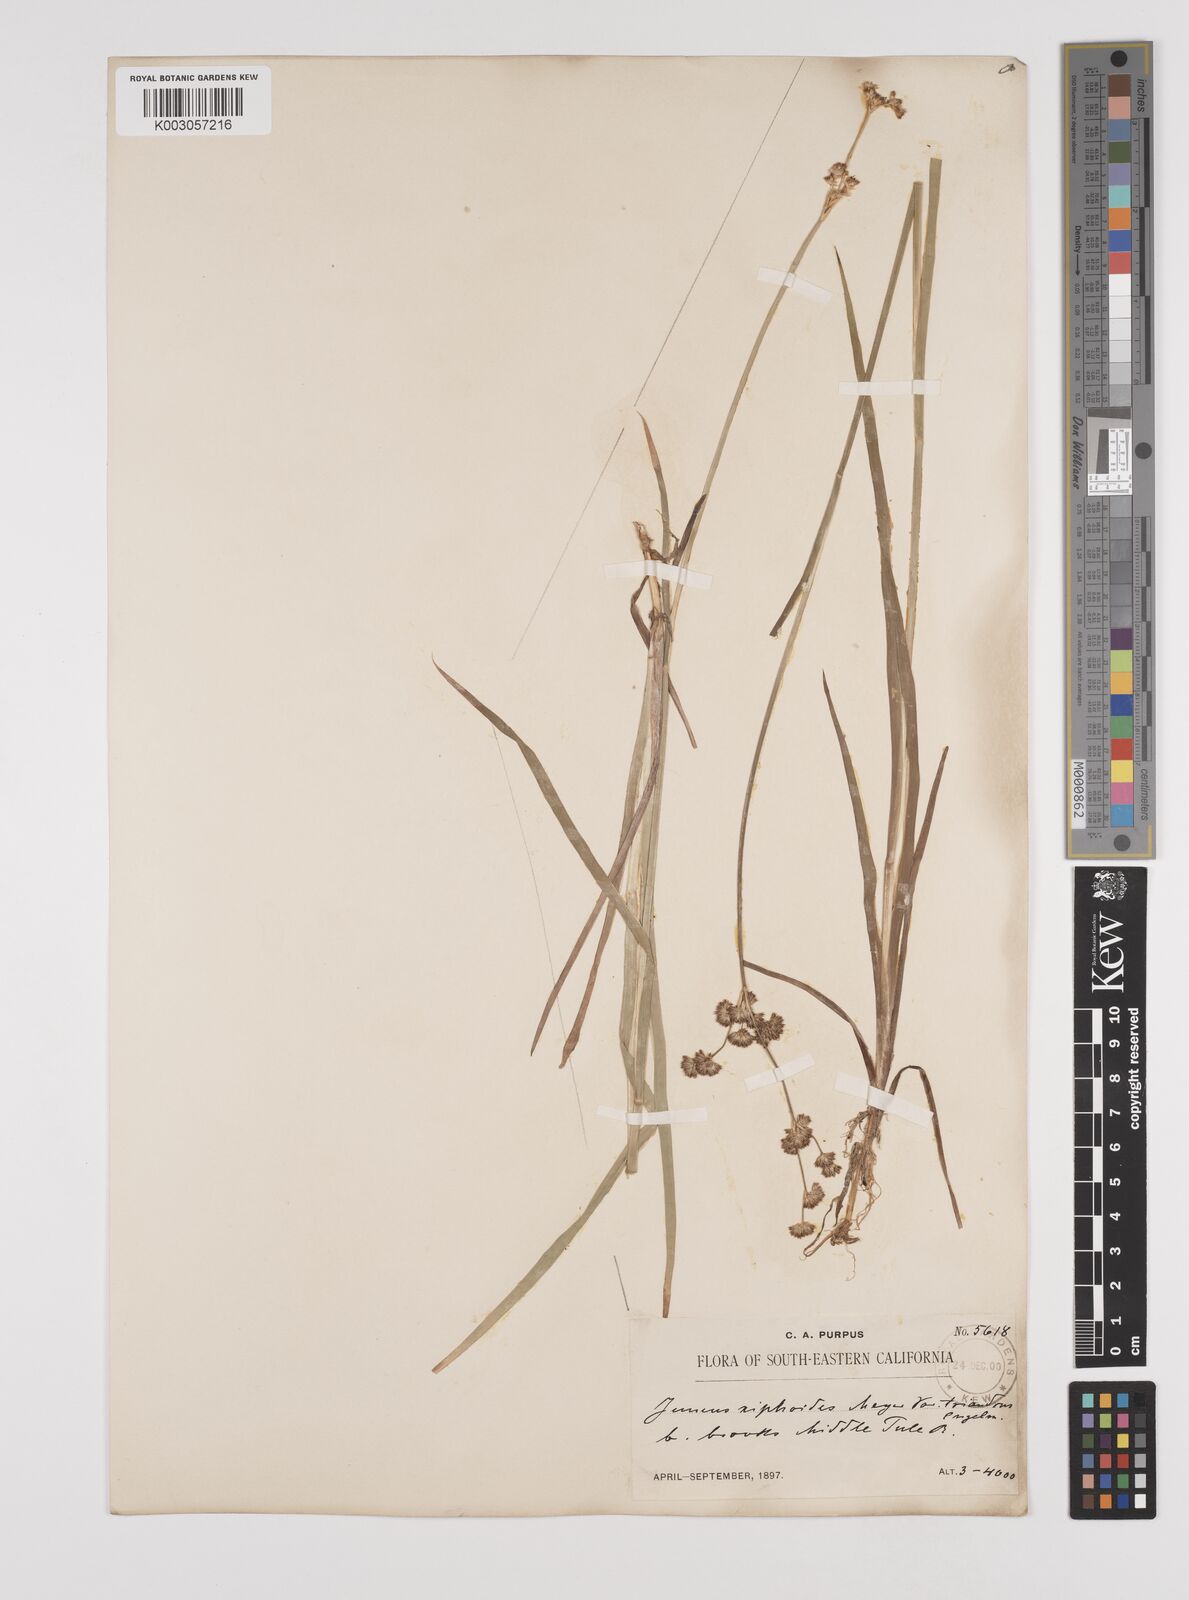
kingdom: Plantae
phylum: Tracheophyta
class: Liliopsida
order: Poales
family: Juncaceae
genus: Juncus
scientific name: Juncus ensifolius
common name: Sword-leaved rush
